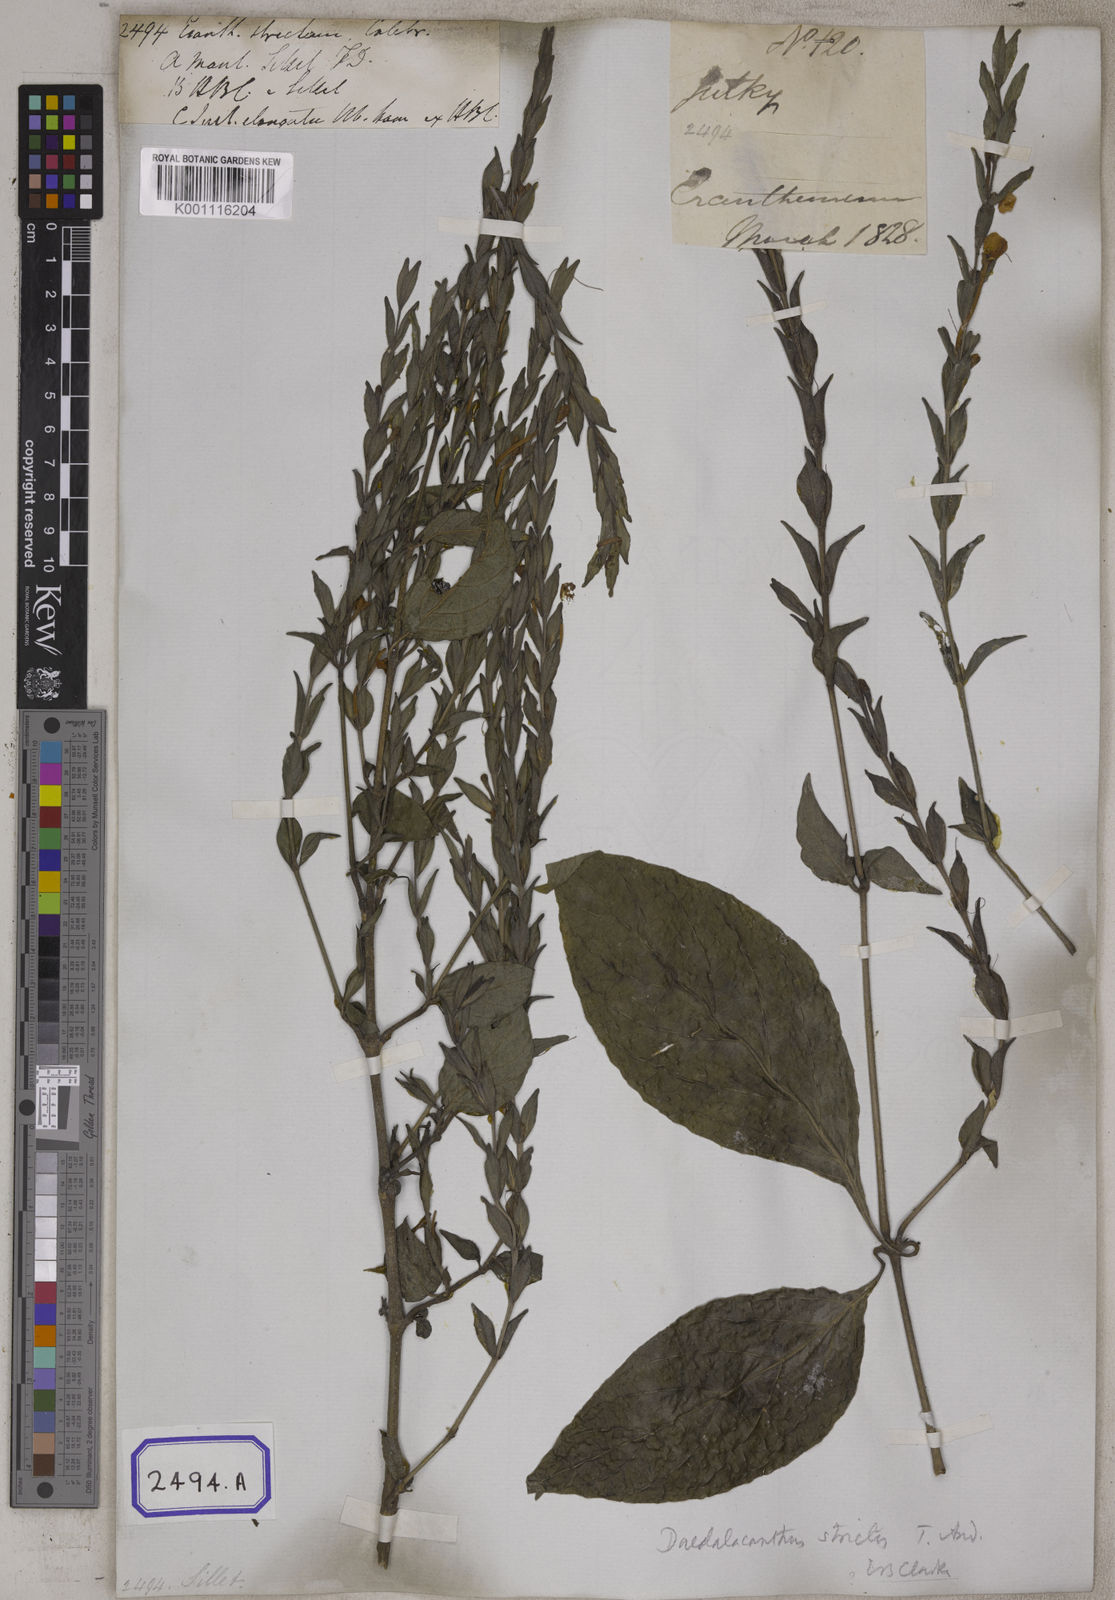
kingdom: Plantae
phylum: Tracheophyta
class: Magnoliopsida
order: Lamiales
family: Acanthaceae
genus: Eranthemum
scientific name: Eranthemum
